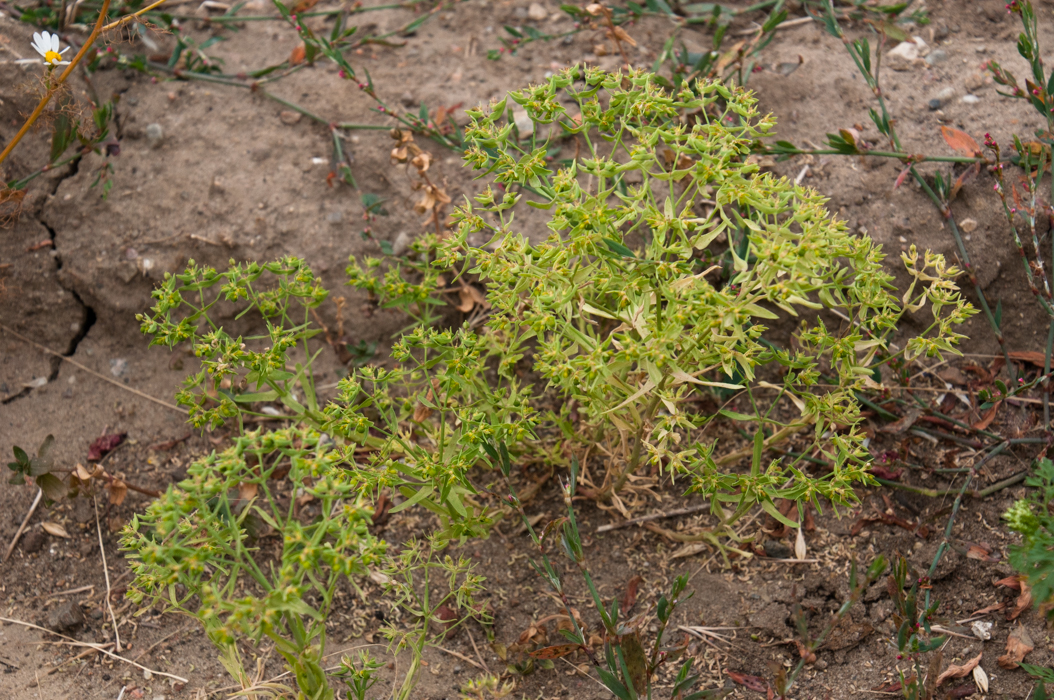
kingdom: Plantae
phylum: Tracheophyta
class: Magnoliopsida
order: Malpighiales
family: Euphorbiaceae
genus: Euphorbia
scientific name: Euphorbia exigua
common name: Dwarf spurge
